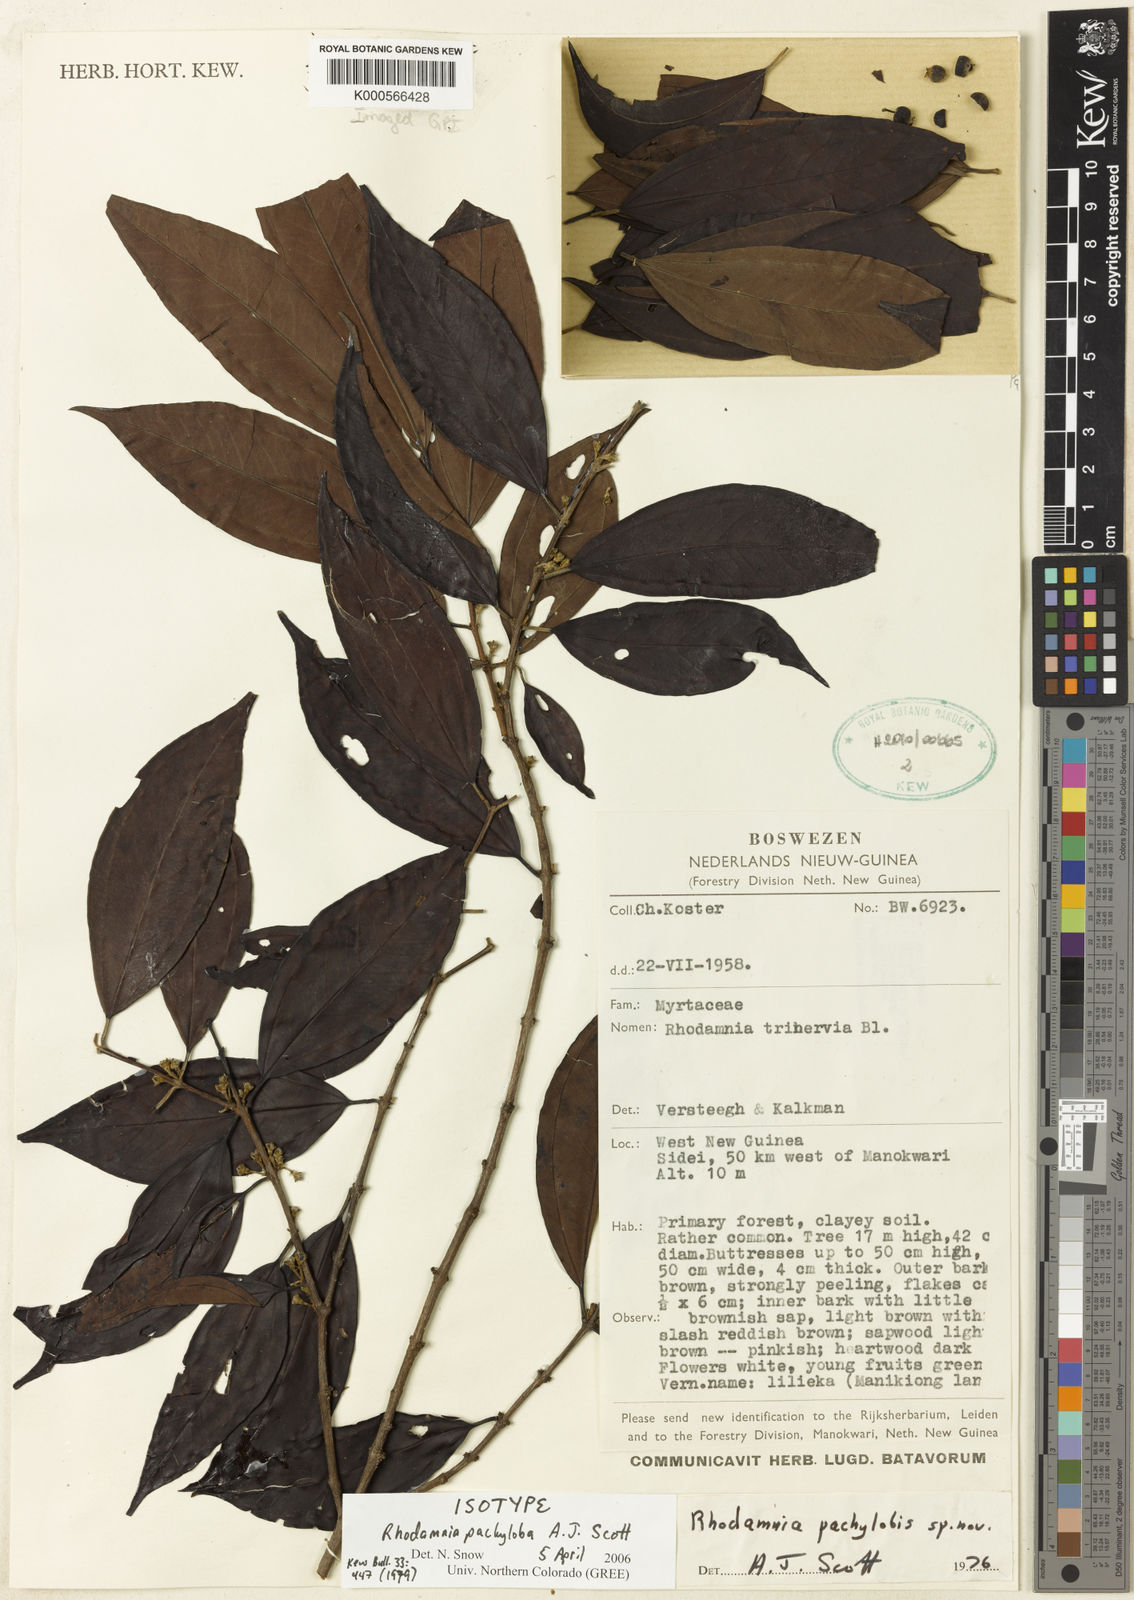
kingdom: Plantae
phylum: Tracheophyta
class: Magnoliopsida
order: Myrtales
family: Myrtaceae
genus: Rhodamnia
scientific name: Rhodamnia pachyloba
